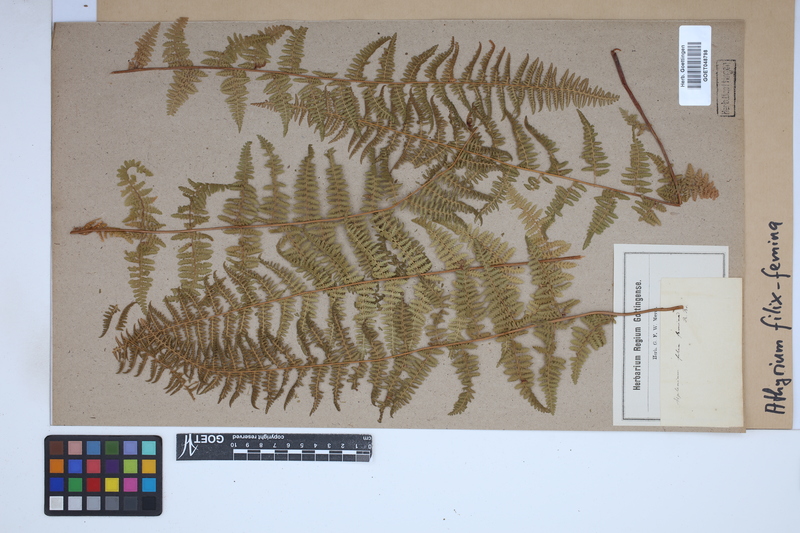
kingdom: Plantae
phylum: Tracheophyta
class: Polypodiopsida
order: Polypodiales
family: Athyriaceae
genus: Athyrium
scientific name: Athyrium filix-femina
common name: Lady fern
